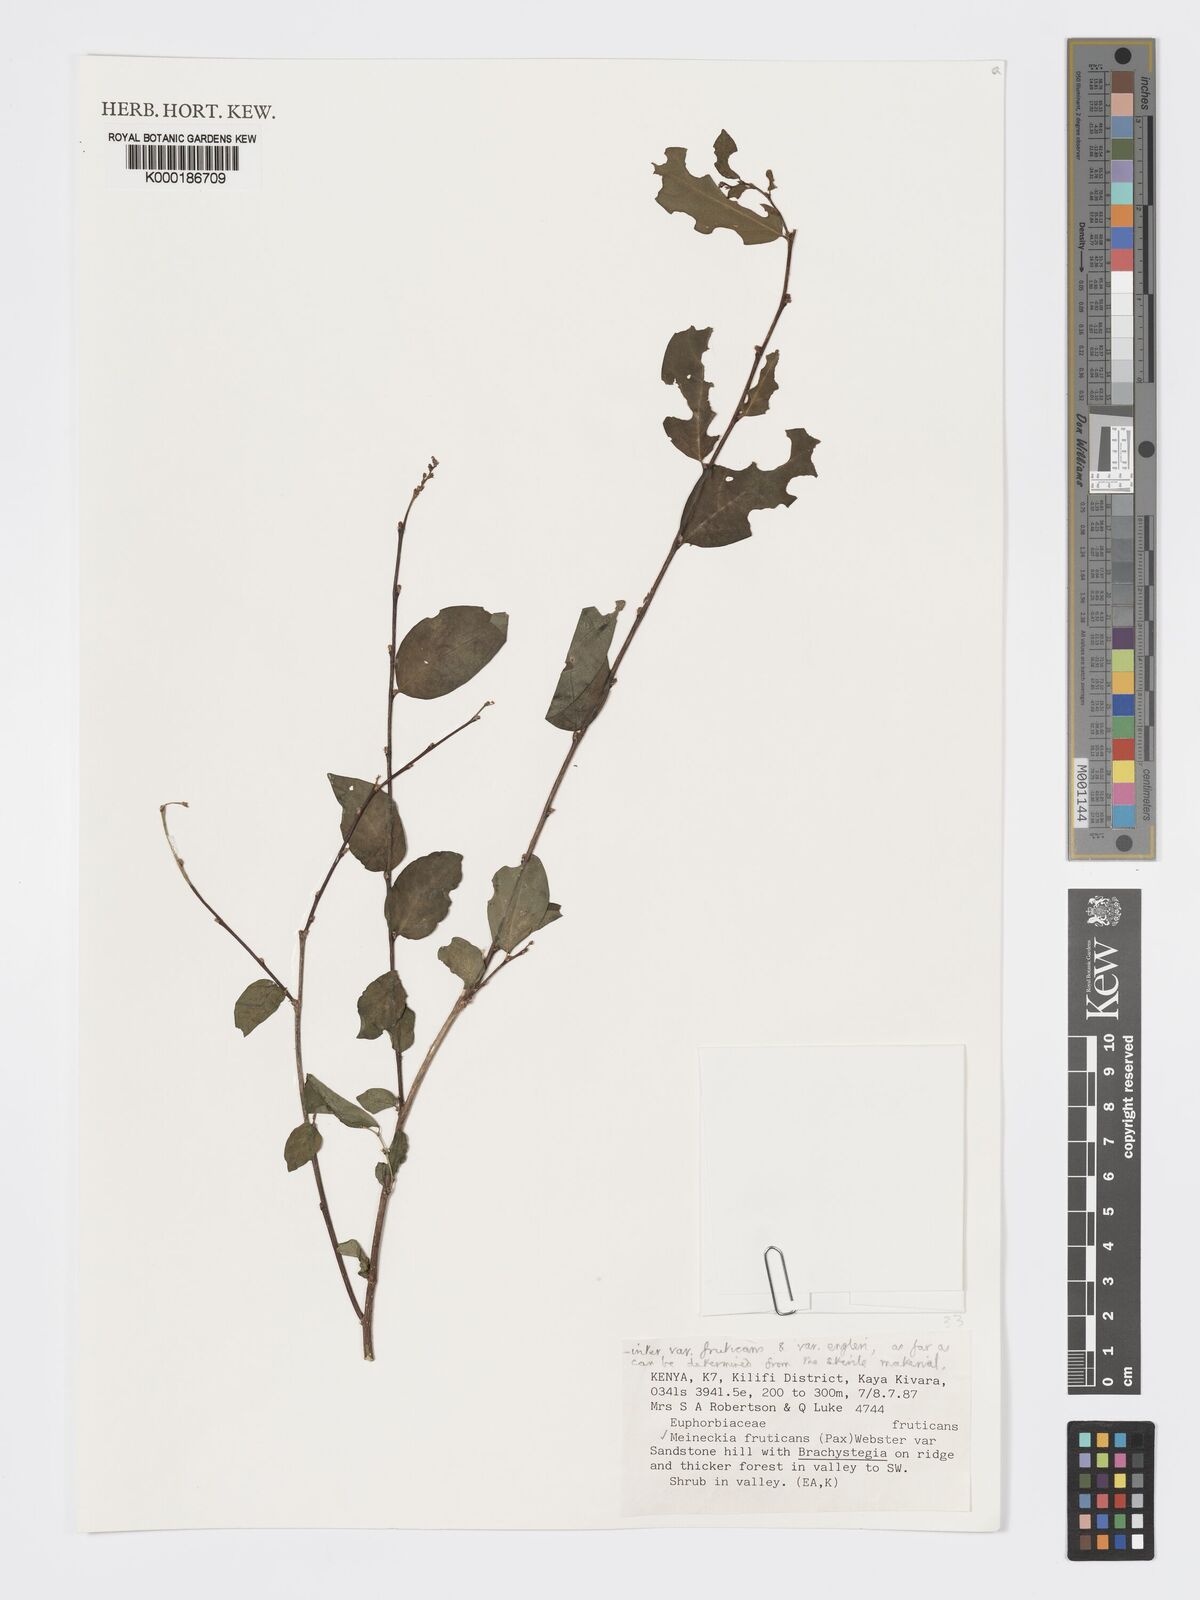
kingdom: Plantae
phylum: Tracheophyta
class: Magnoliopsida
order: Malpighiales
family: Phyllanthaceae
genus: Meineckia
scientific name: Meineckia fruticans
